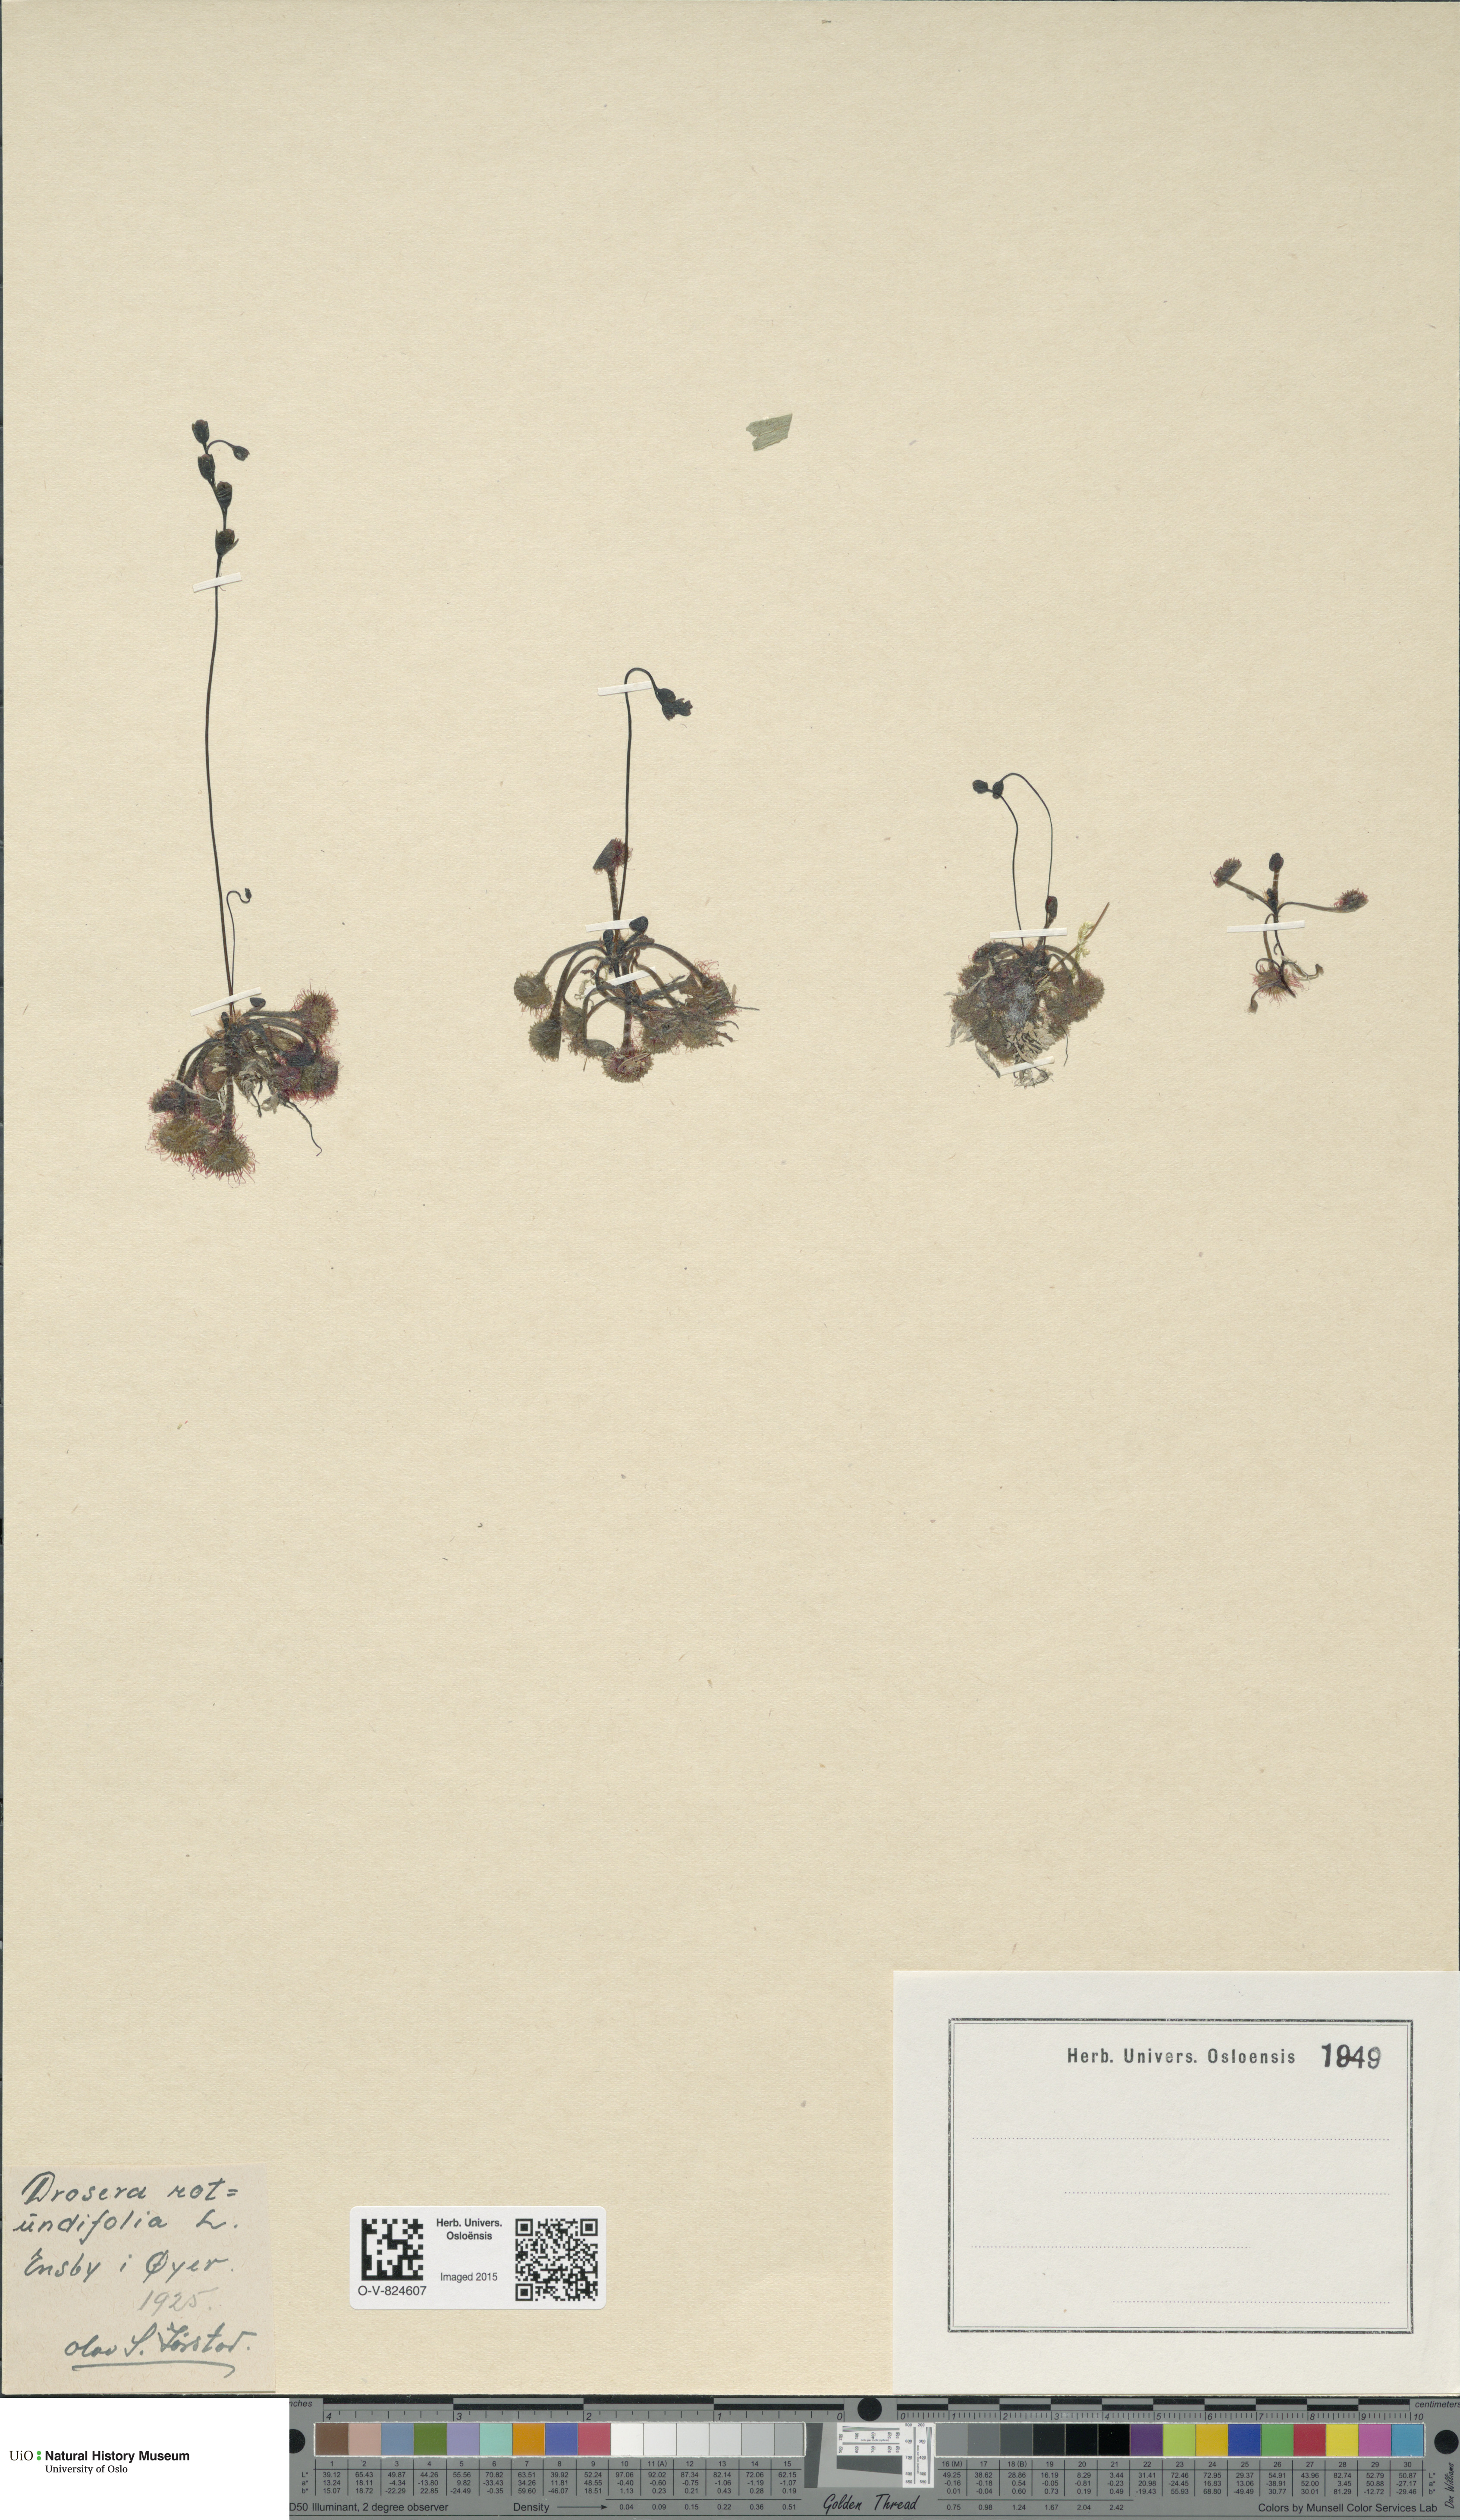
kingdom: Plantae
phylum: Tracheophyta
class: Magnoliopsida
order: Caryophyllales
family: Droseraceae
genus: Drosera
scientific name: Drosera rotundifolia
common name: Round-leaved sundew
